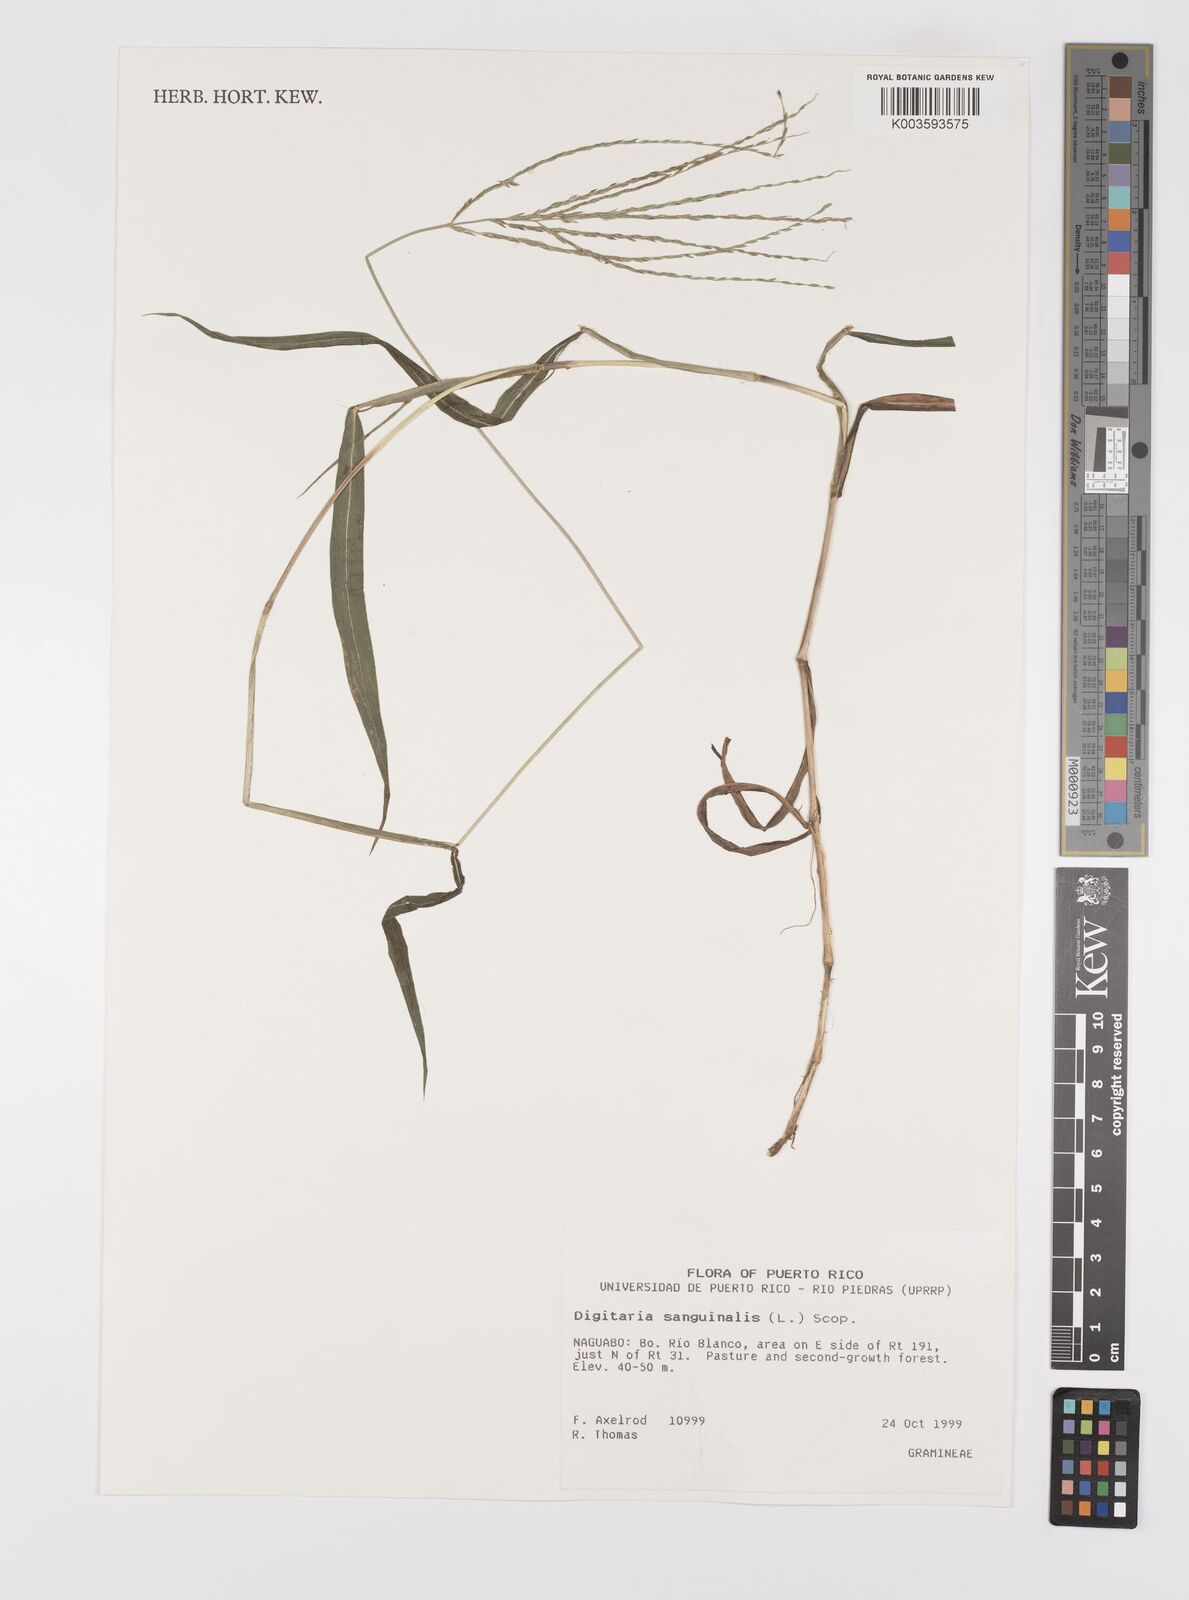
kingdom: Plantae
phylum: Tracheophyta
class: Liliopsida
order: Poales
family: Poaceae
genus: Digitaria
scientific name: Digitaria sanguinalis
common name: Hairy crabgrass
